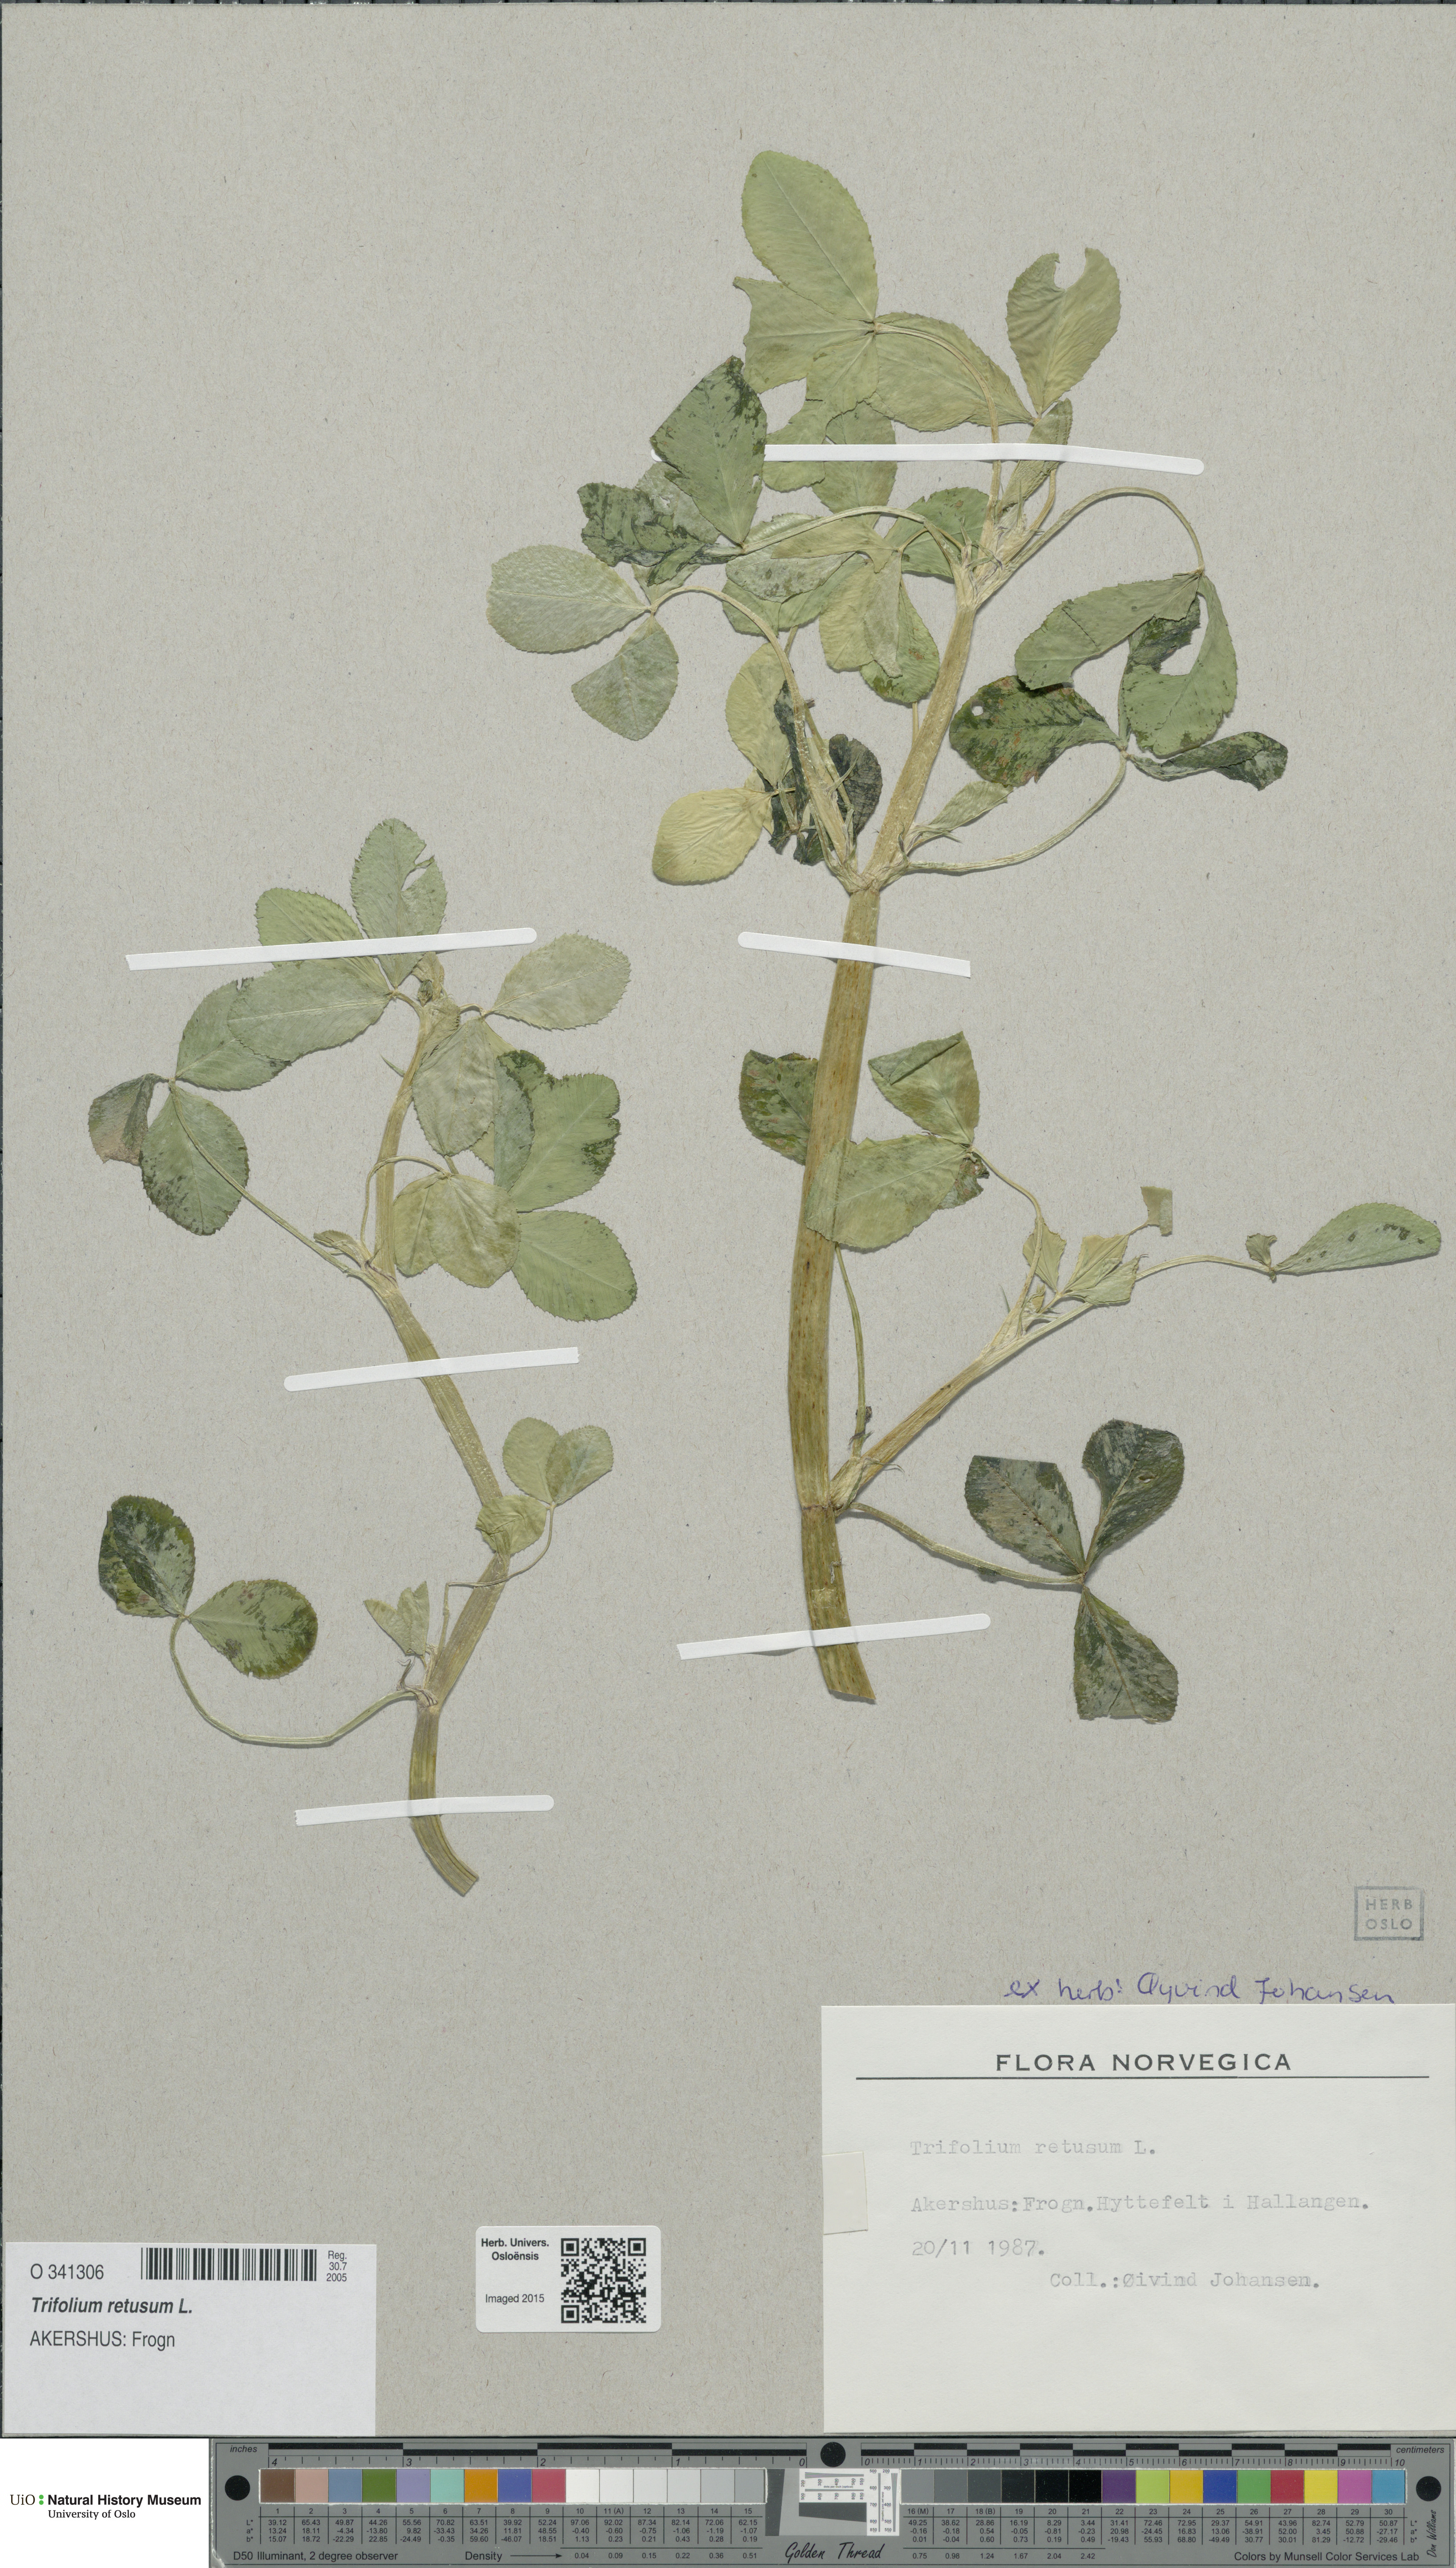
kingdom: Plantae
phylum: Tracheophyta
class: Magnoliopsida
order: Fabales
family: Fabaceae
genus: Trifolium
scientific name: Trifolium retusum
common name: Teasel clover
